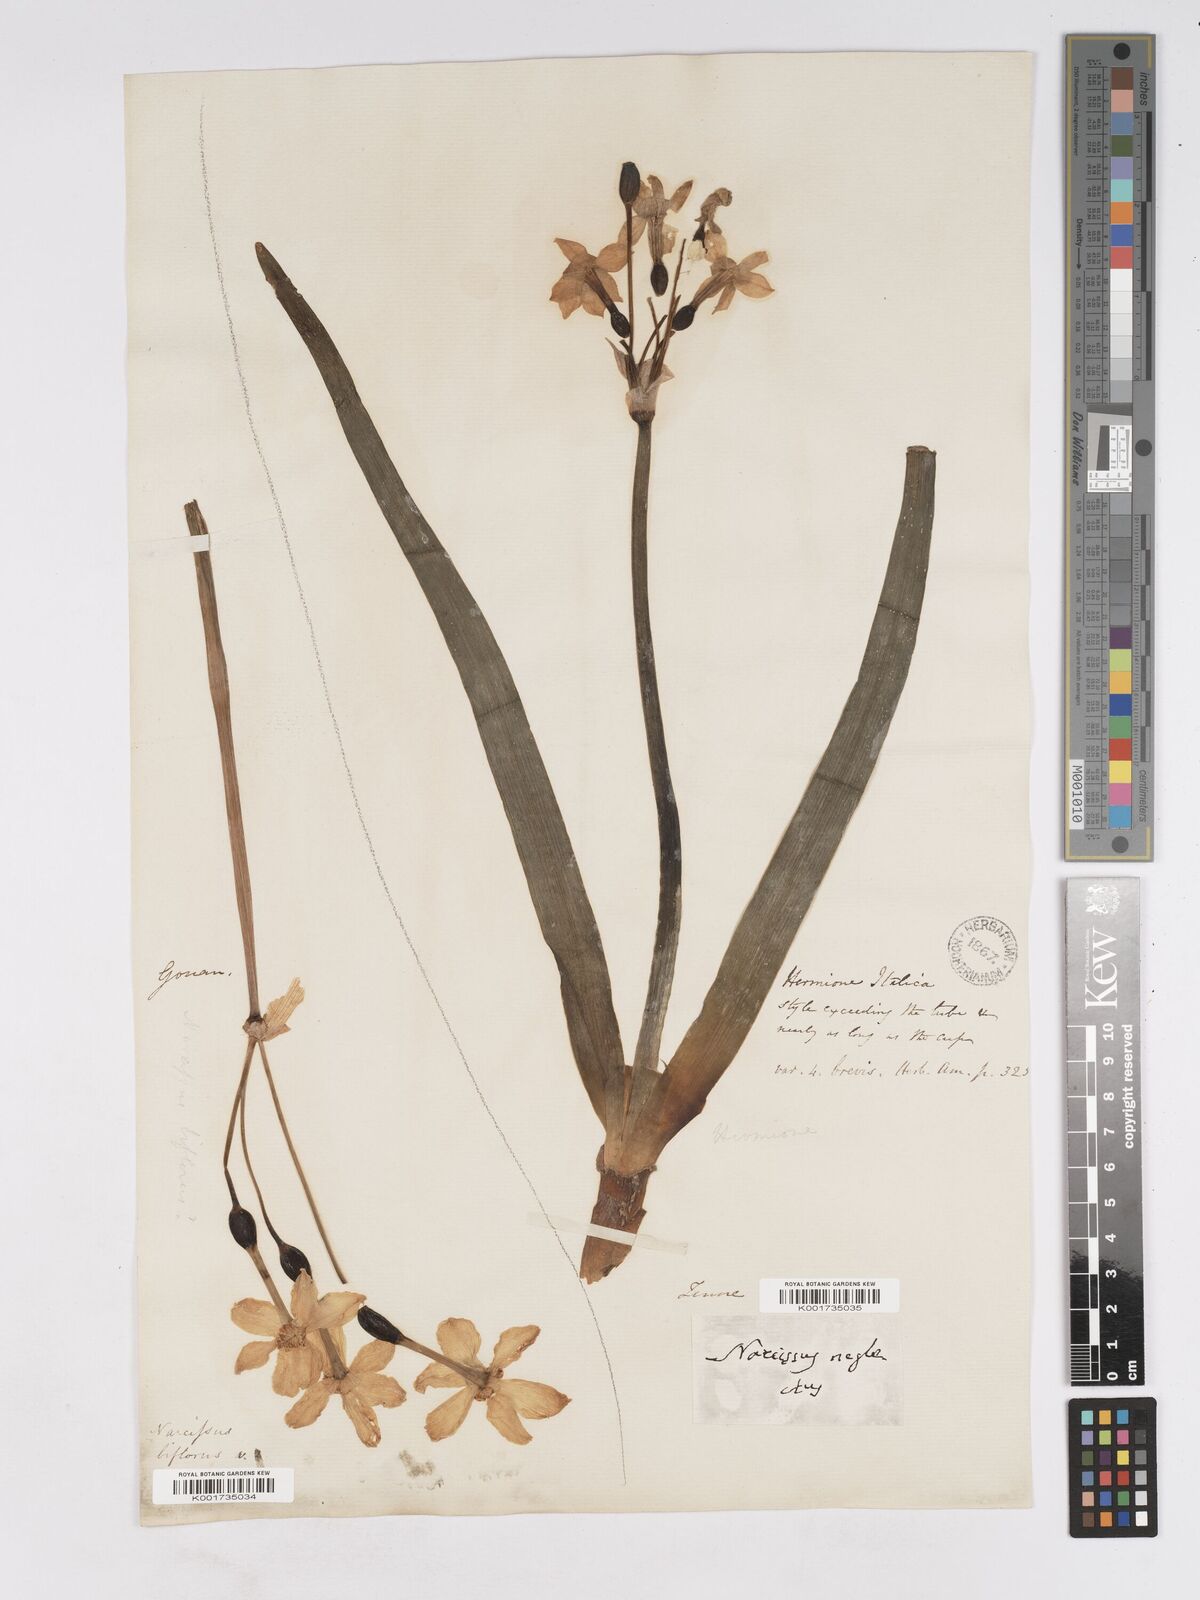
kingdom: Plantae
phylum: Tracheophyta
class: Liliopsida
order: Asparagales
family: Amaryllidaceae
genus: Narcissus
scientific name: Narcissus tazetta
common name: Bunch-flowered daffodil
